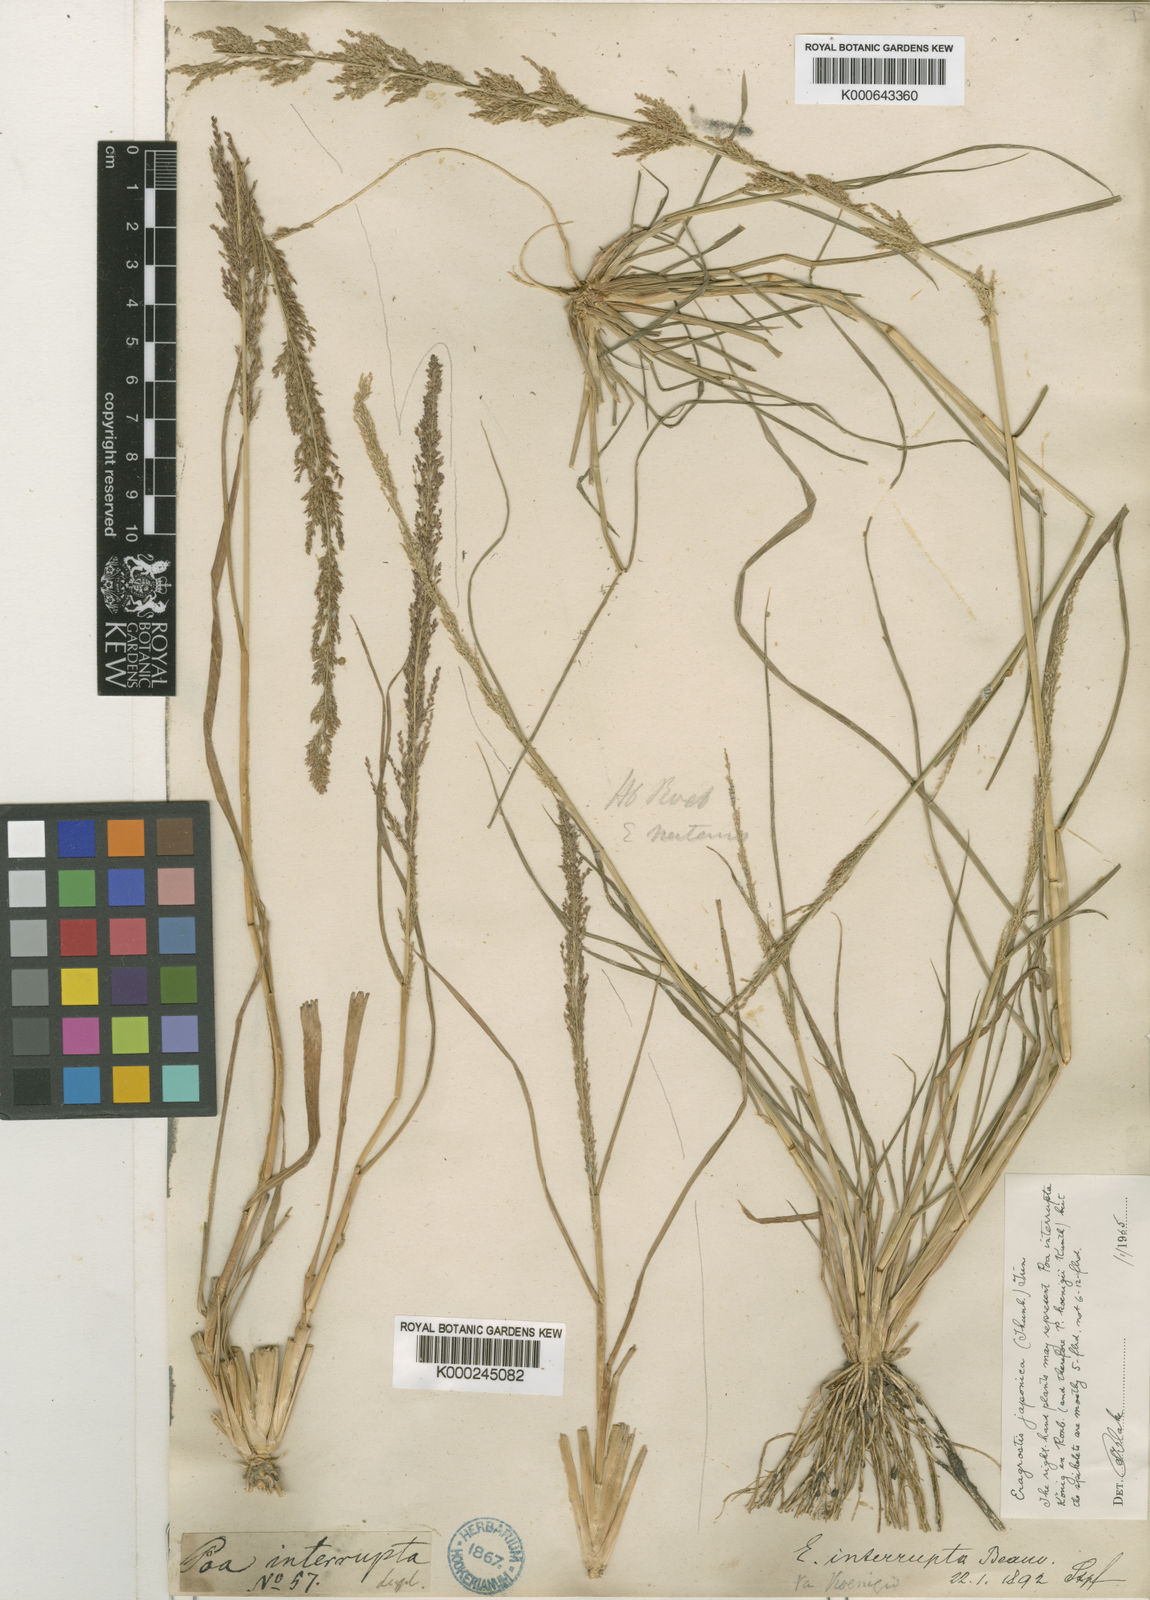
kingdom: Plantae
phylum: Tracheophyta
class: Liliopsida
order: Poales
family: Poaceae
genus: Eragrostis
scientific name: Eragrostis japonica
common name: Pond lovegrass
